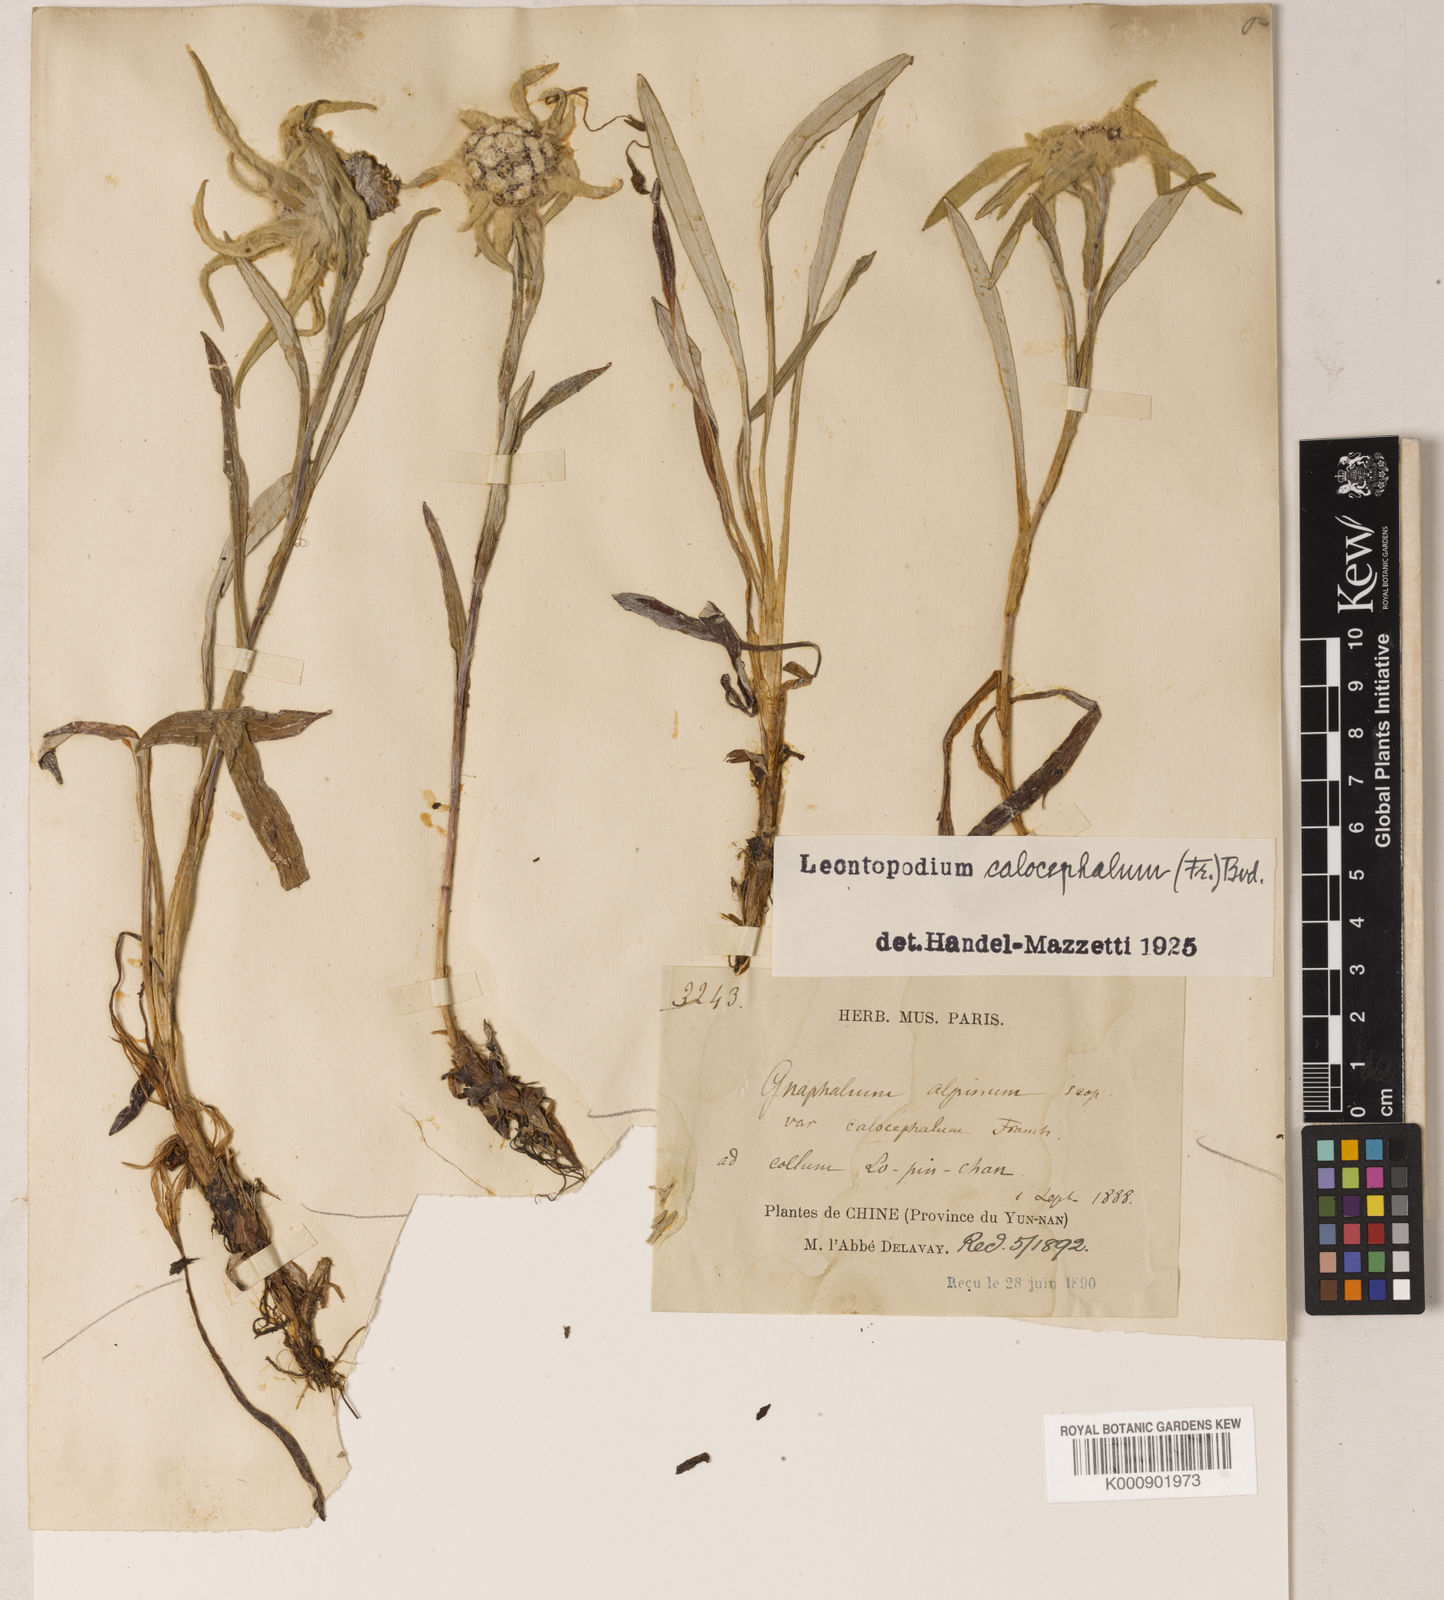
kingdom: Plantae
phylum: Tracheophyta
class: Magnoliopsida
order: Asterales
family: Asteraceae
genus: Leontopodium
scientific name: Leontopodium calocephalum
